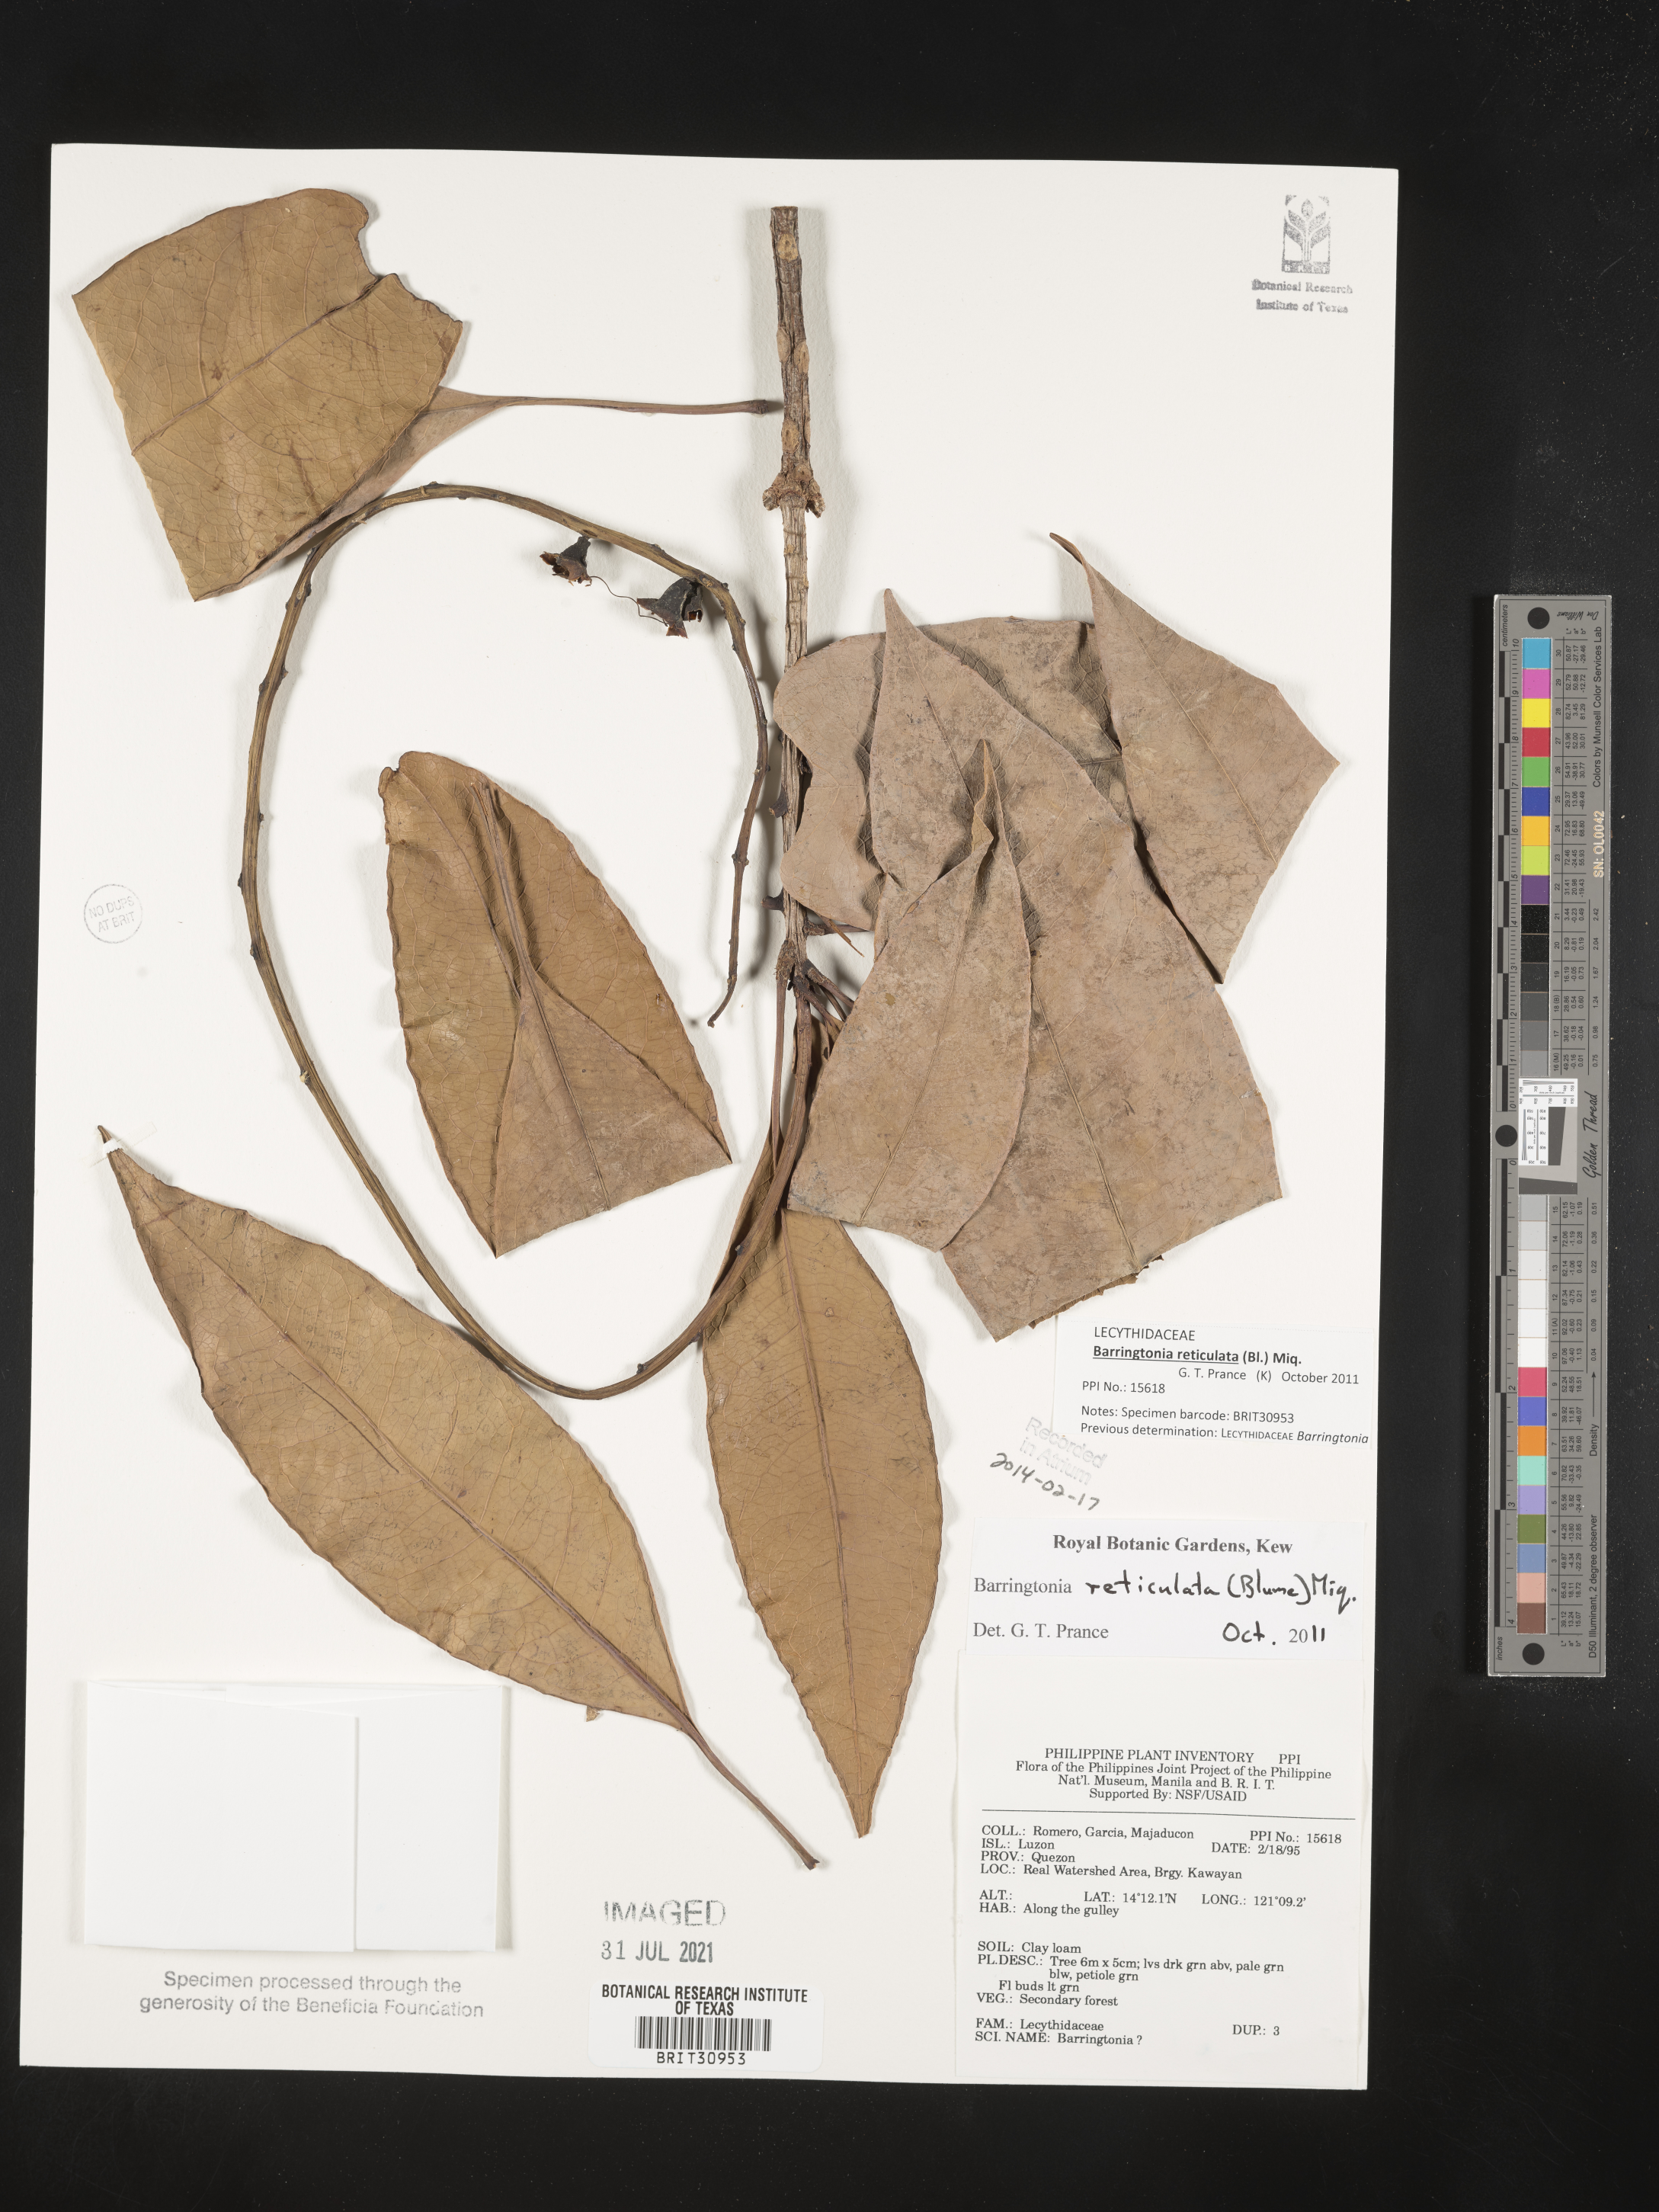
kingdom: Plantae
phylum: Tracheophyta
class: Magnoliopsida
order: Ericales
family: Lecythidaceae
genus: Barringtonia
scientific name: Barringtonia
